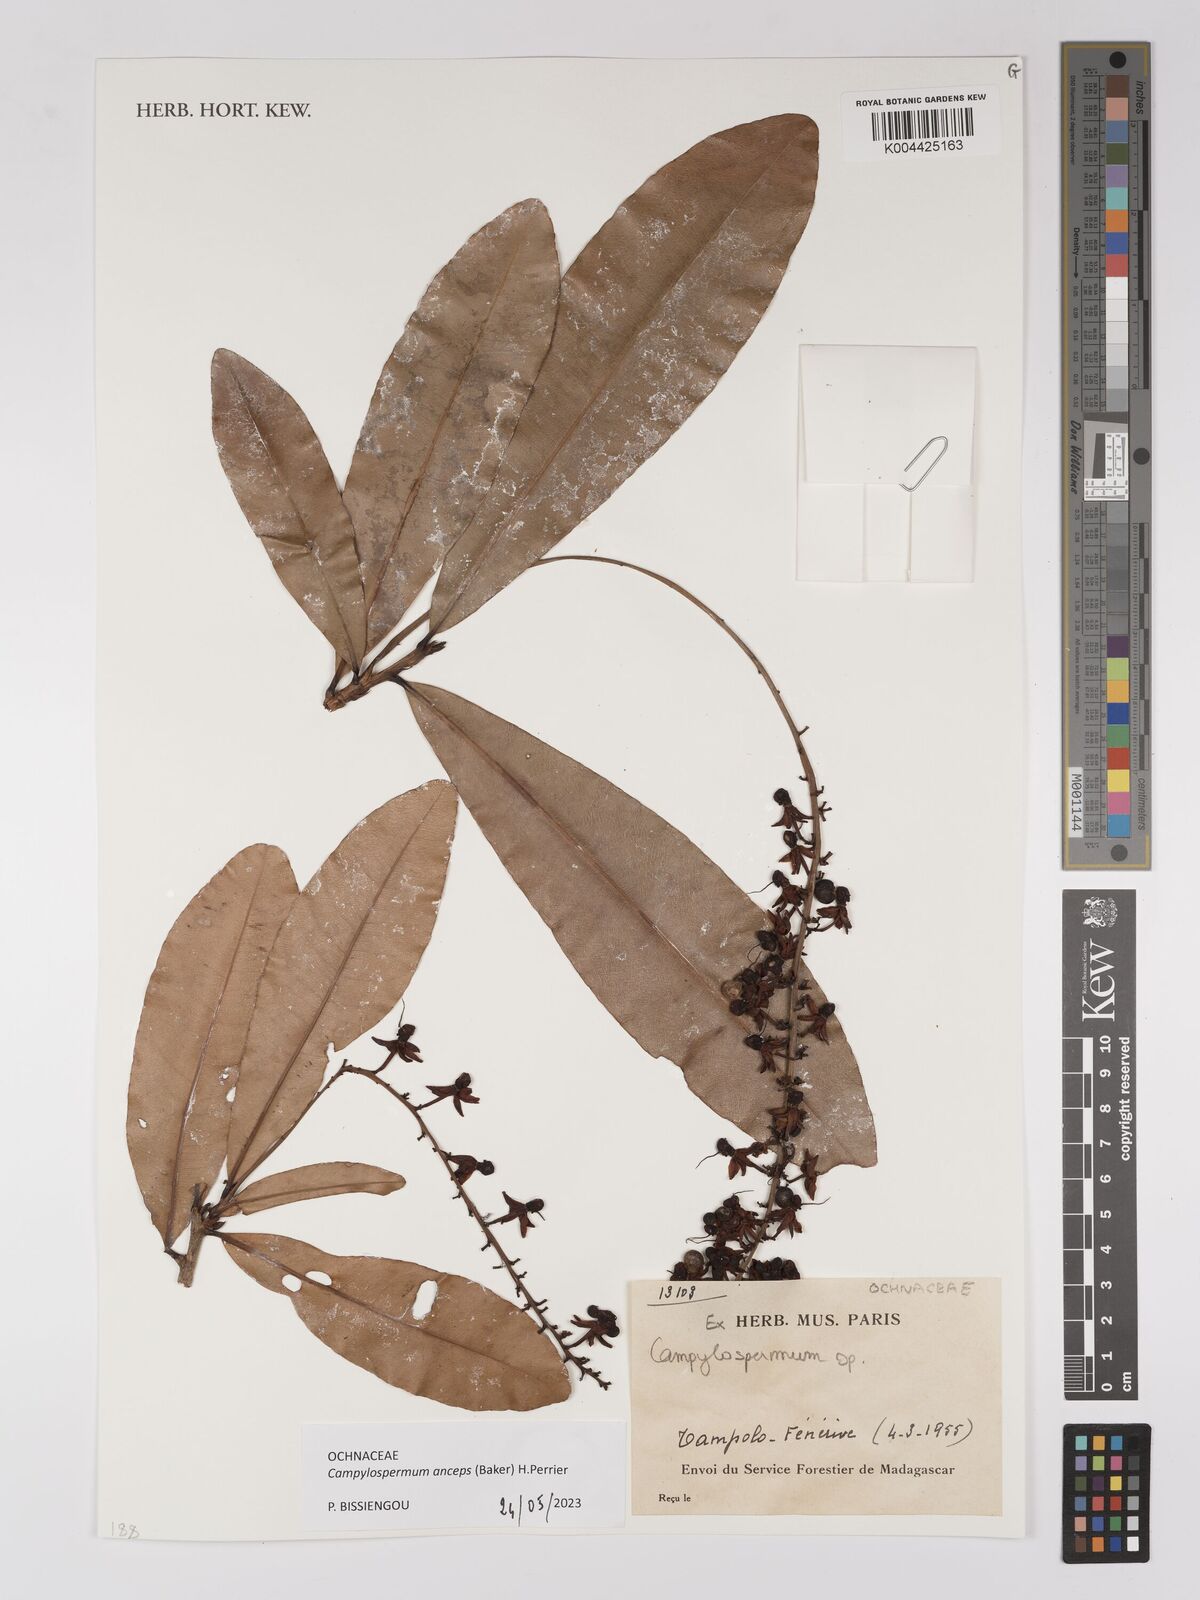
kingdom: Plantae
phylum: Tracheophyta
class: Magnoliopsida
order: Malpighiales
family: Ochnaceae
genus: Campylospermum
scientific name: Campylospermum
